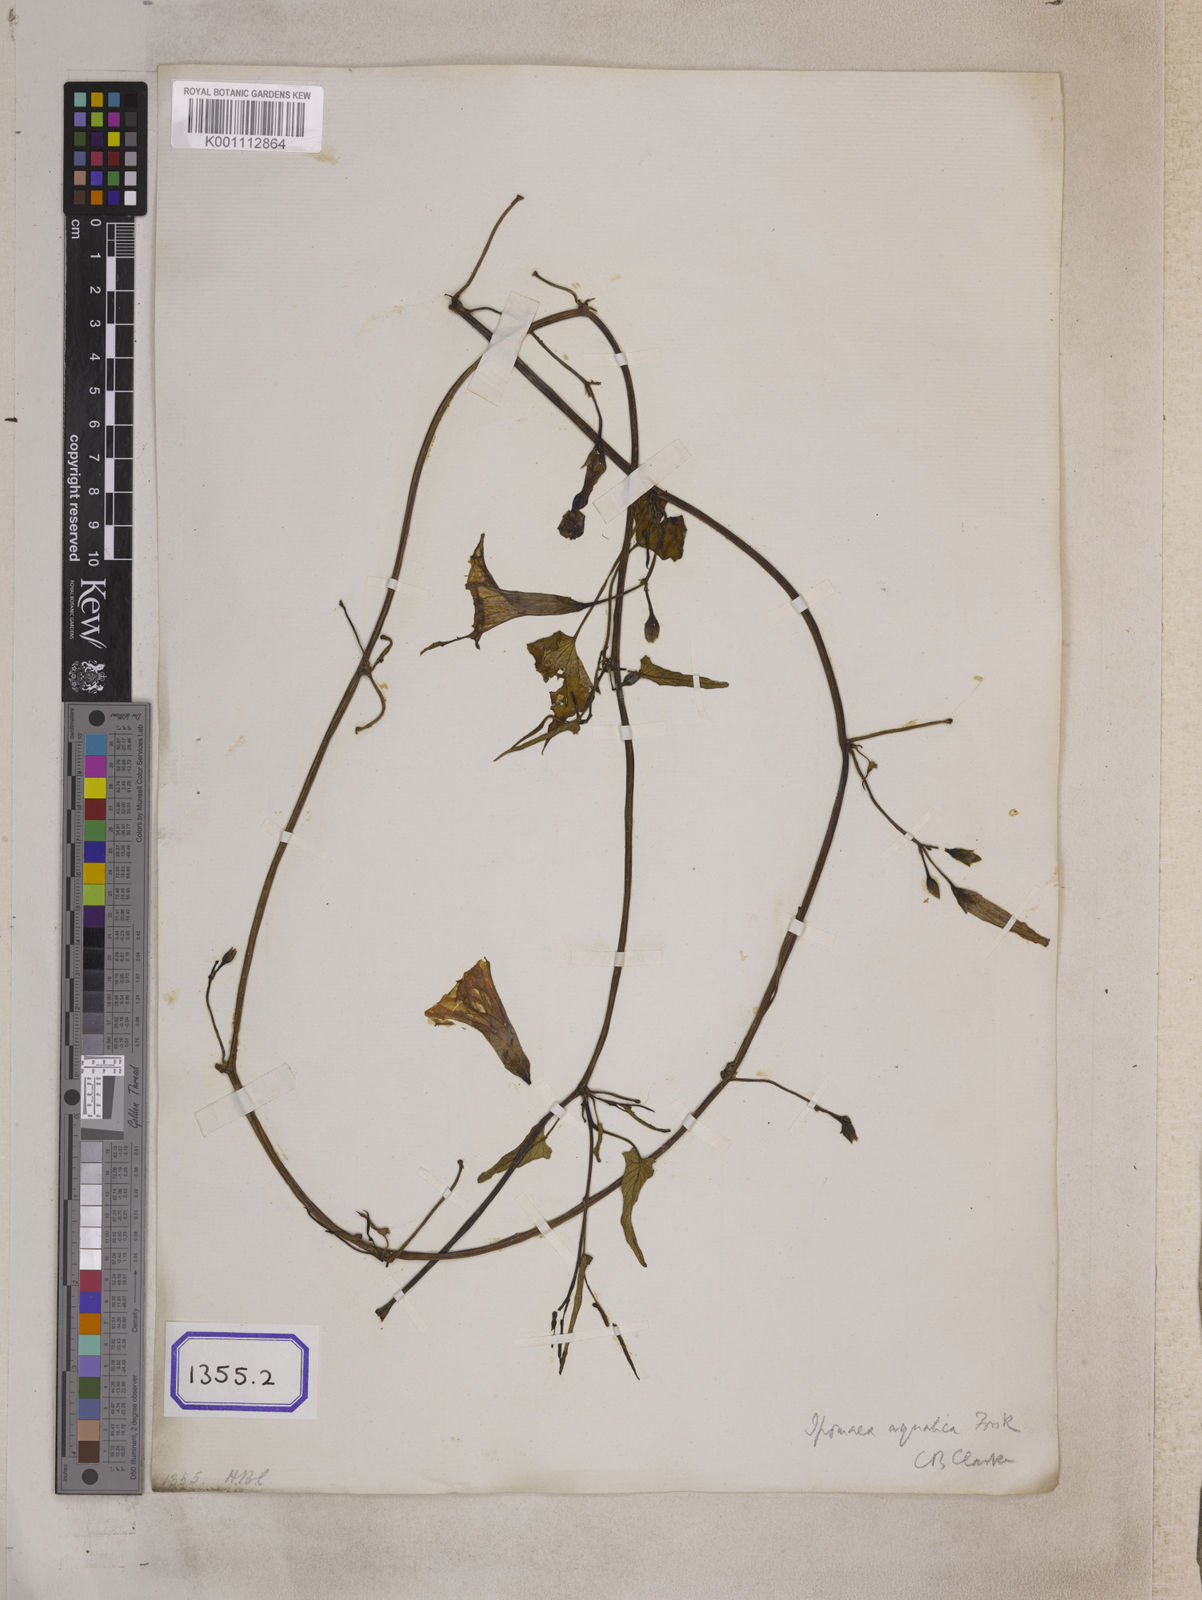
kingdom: Plantae
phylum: Tracheophyta
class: Magnoliopsida
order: Solanales
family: Convolvulaceae
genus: Calystegia
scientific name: Calystegia sepium
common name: Hedge bindweed
